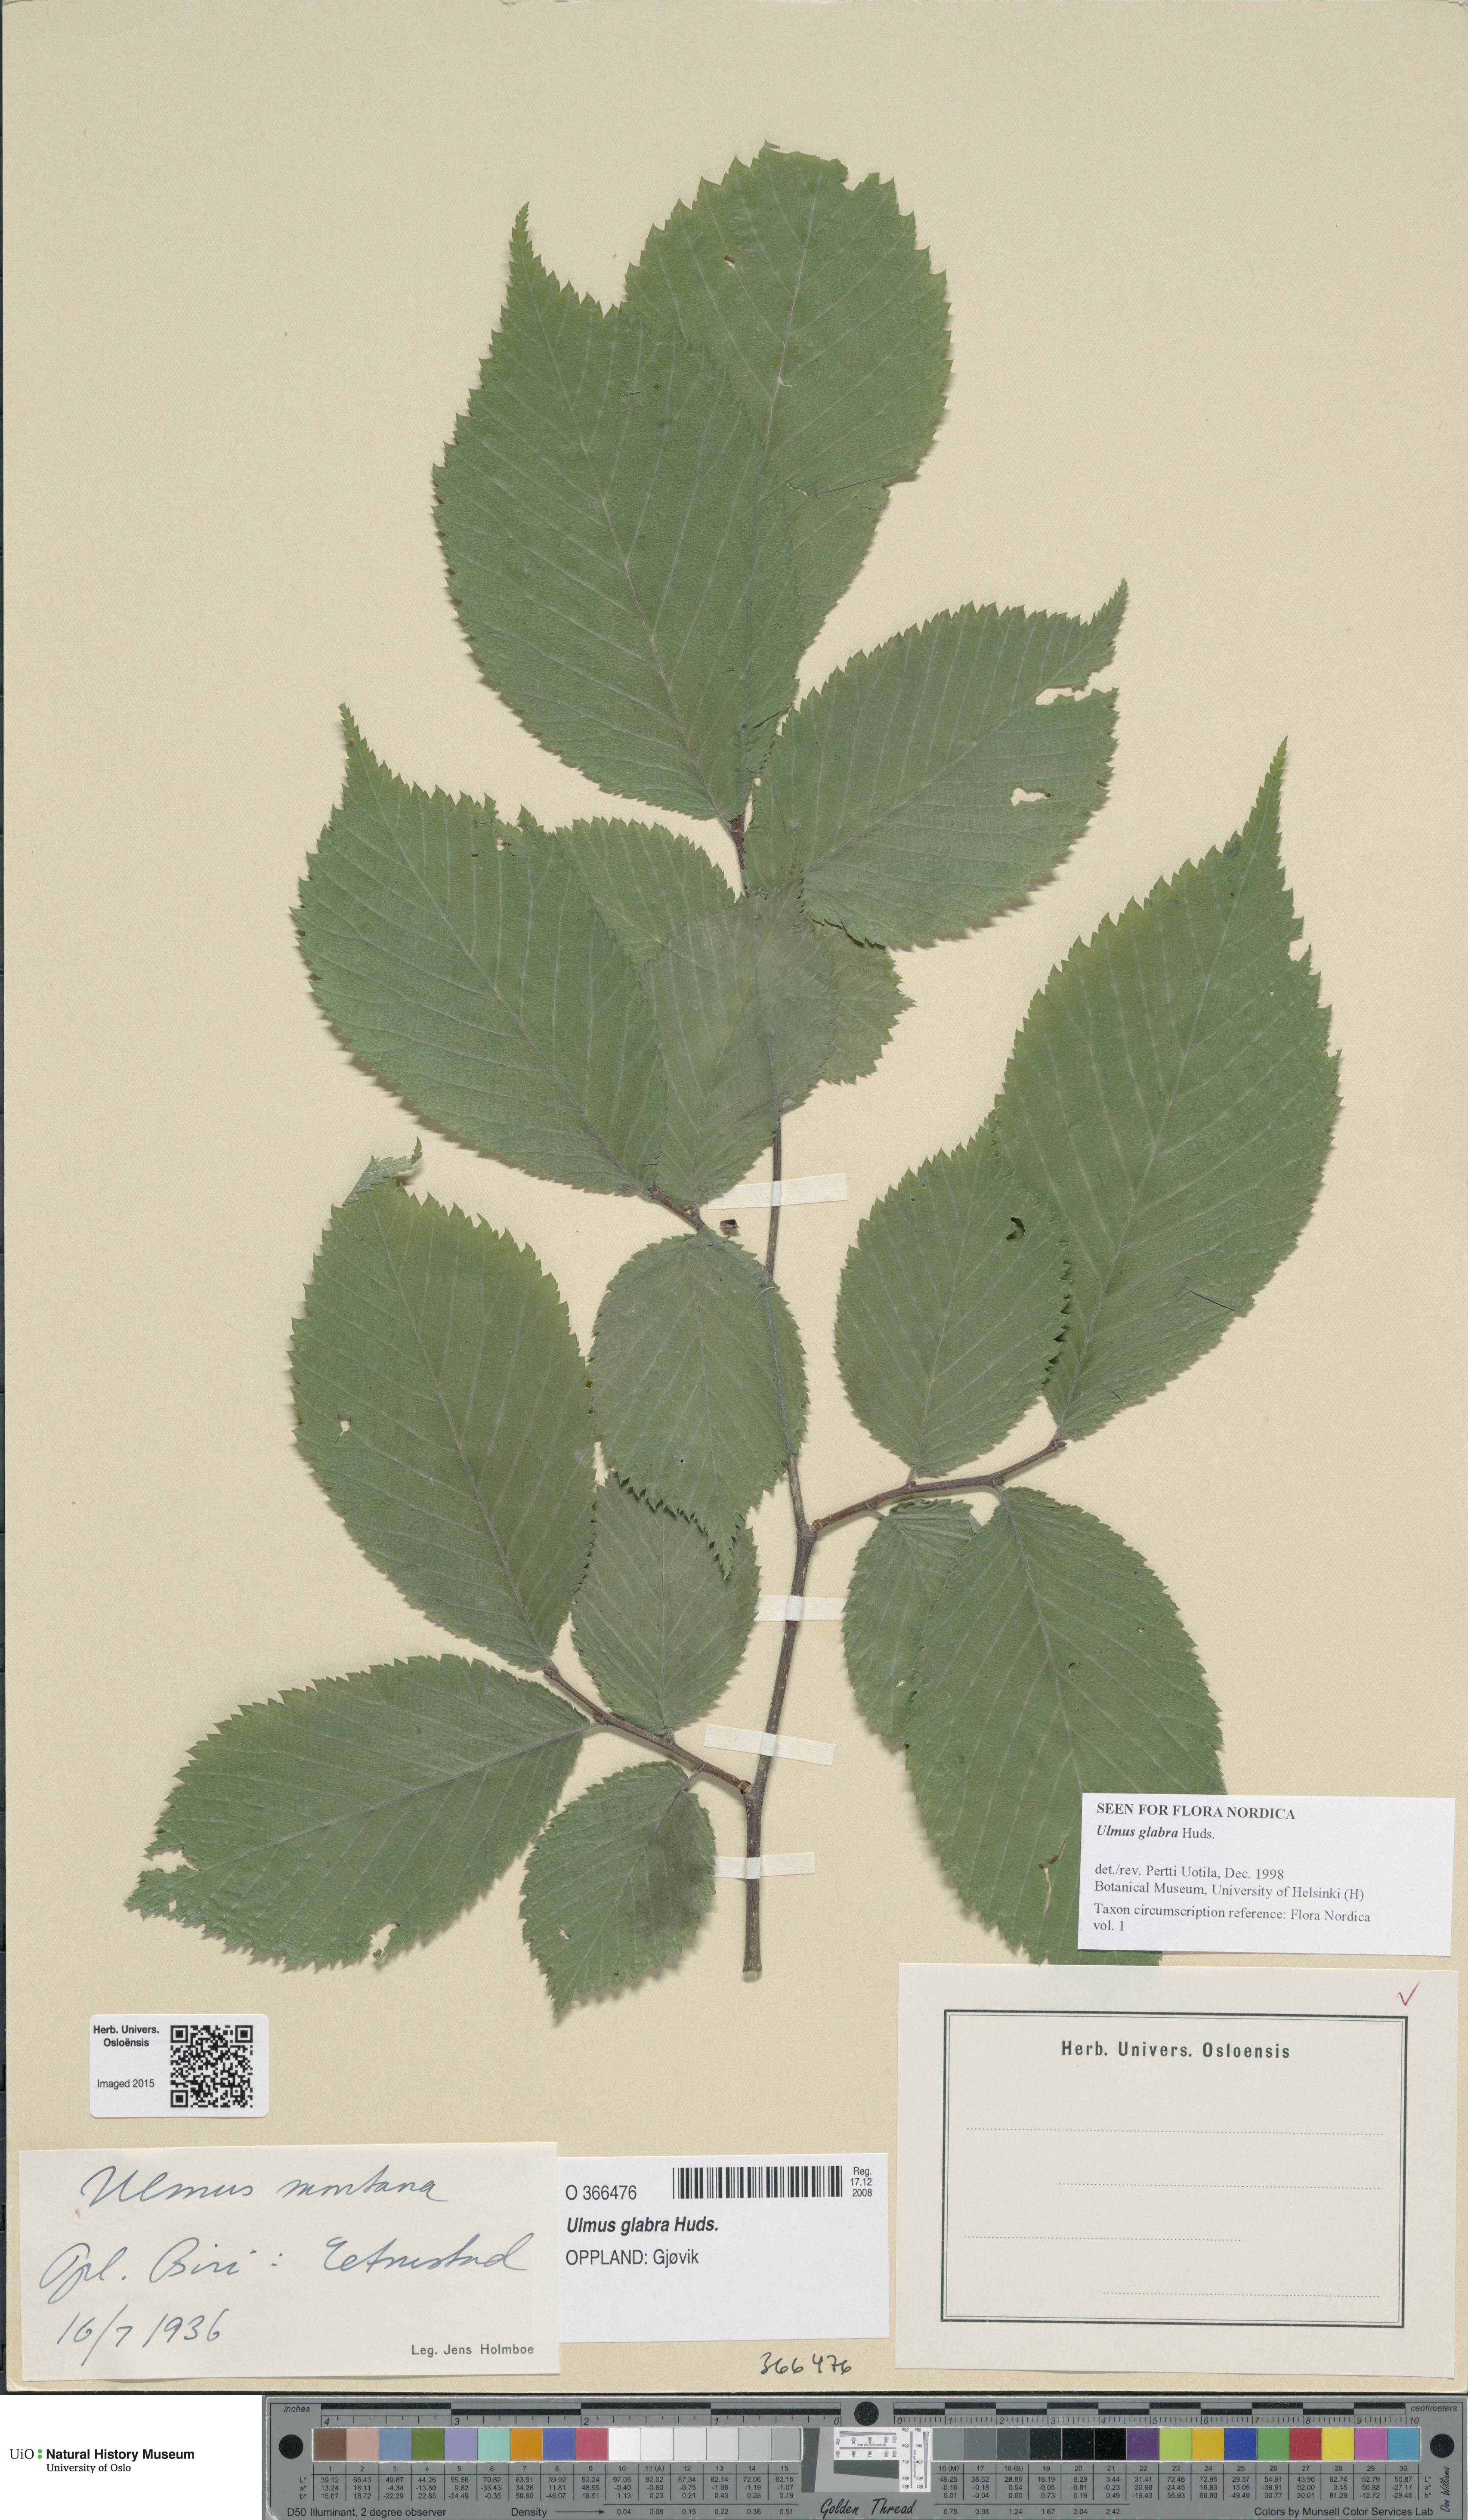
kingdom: Plantae
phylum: Tracheophyta
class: Magnoliopsida
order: Rosales
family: Ulmaceae
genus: Ulmus
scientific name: Ulmus glabra
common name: Wych elm
